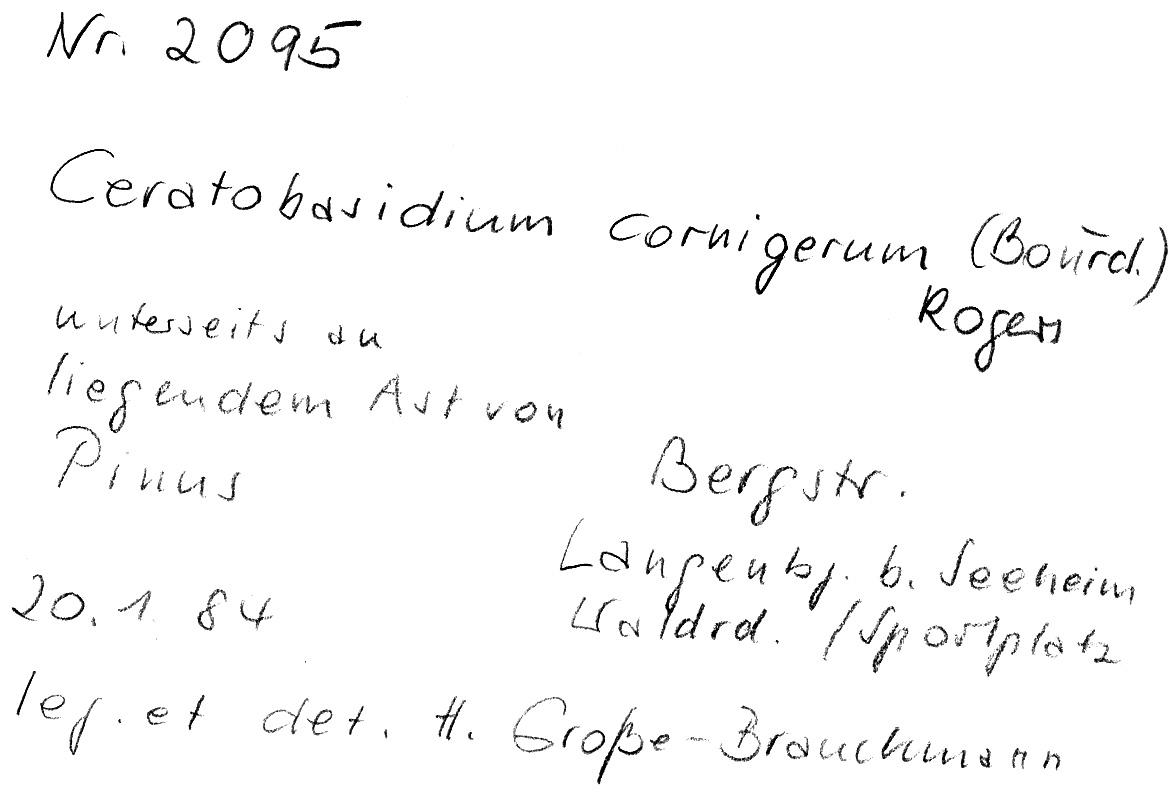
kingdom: Fungi
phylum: Basidiomycota
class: Agaricomycetes
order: Cantharellales
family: Ceratobasidiaceae
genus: Ceratobasidium
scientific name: Ceratobasidium cornigerum
